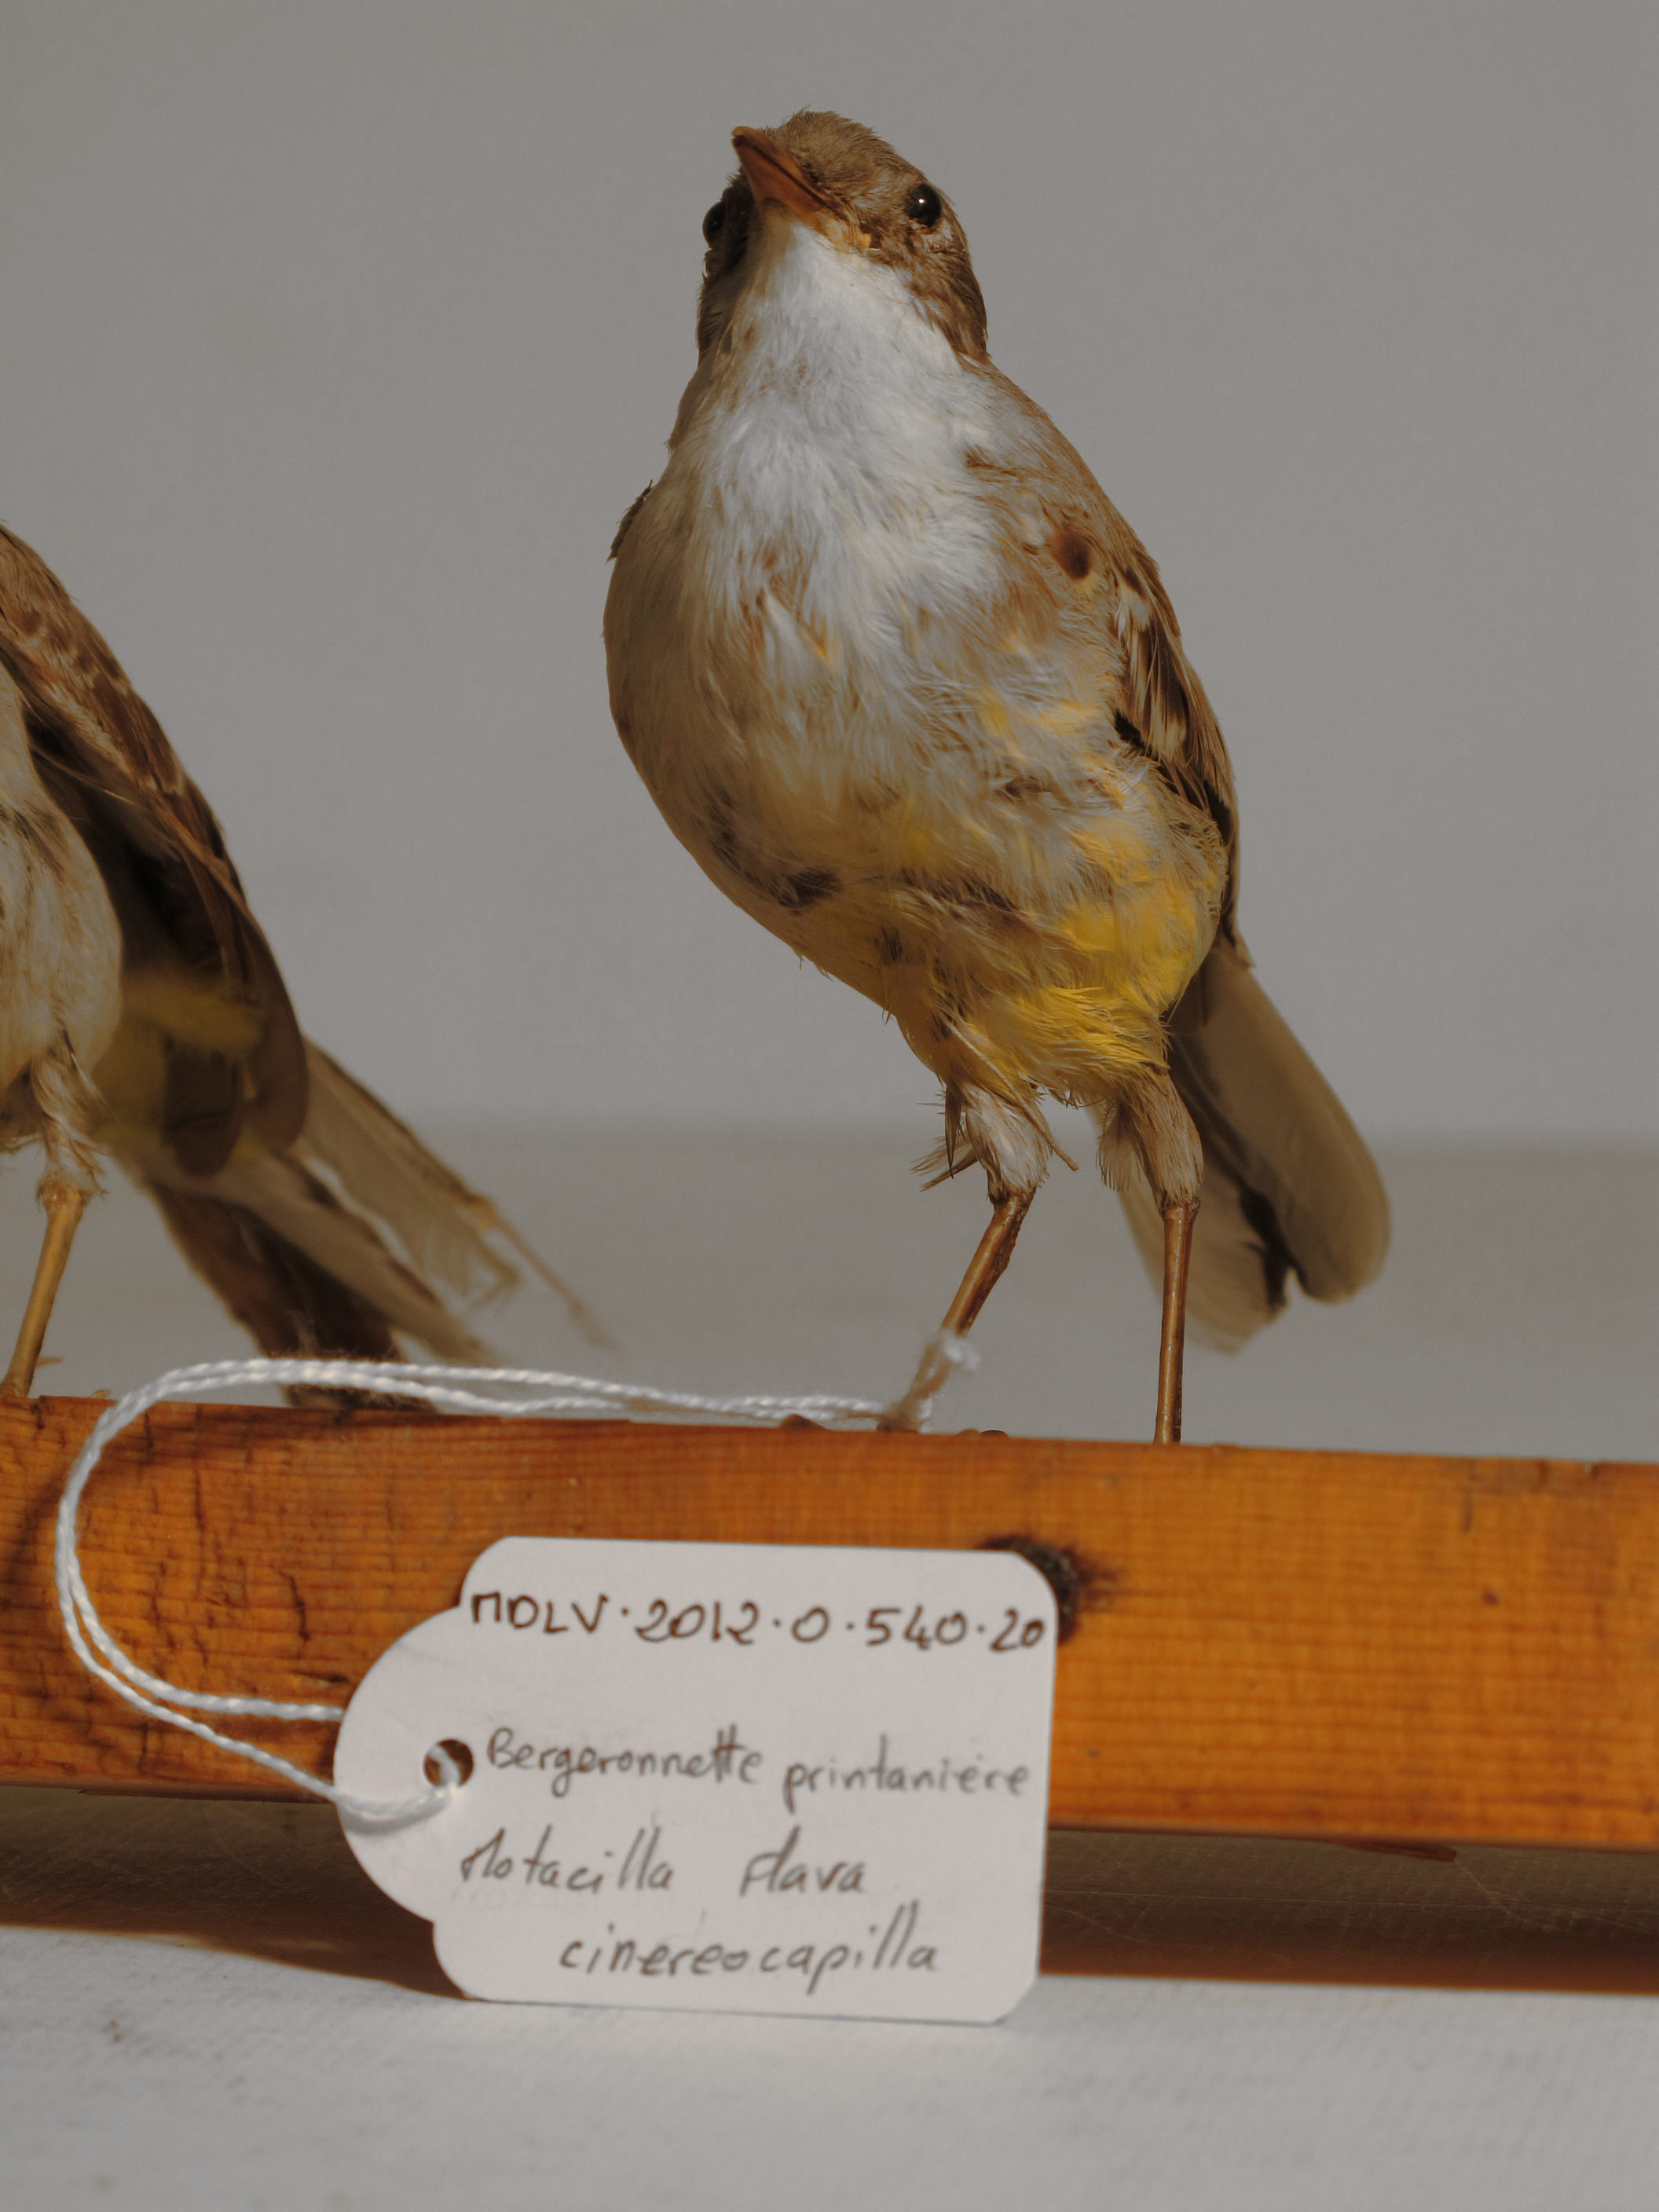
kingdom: Animalia
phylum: Chordata
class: Aves
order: Passeriformes
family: Motacillidae
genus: Motacilla
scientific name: Motacilla flava
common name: Ashy-headed Wagtail
